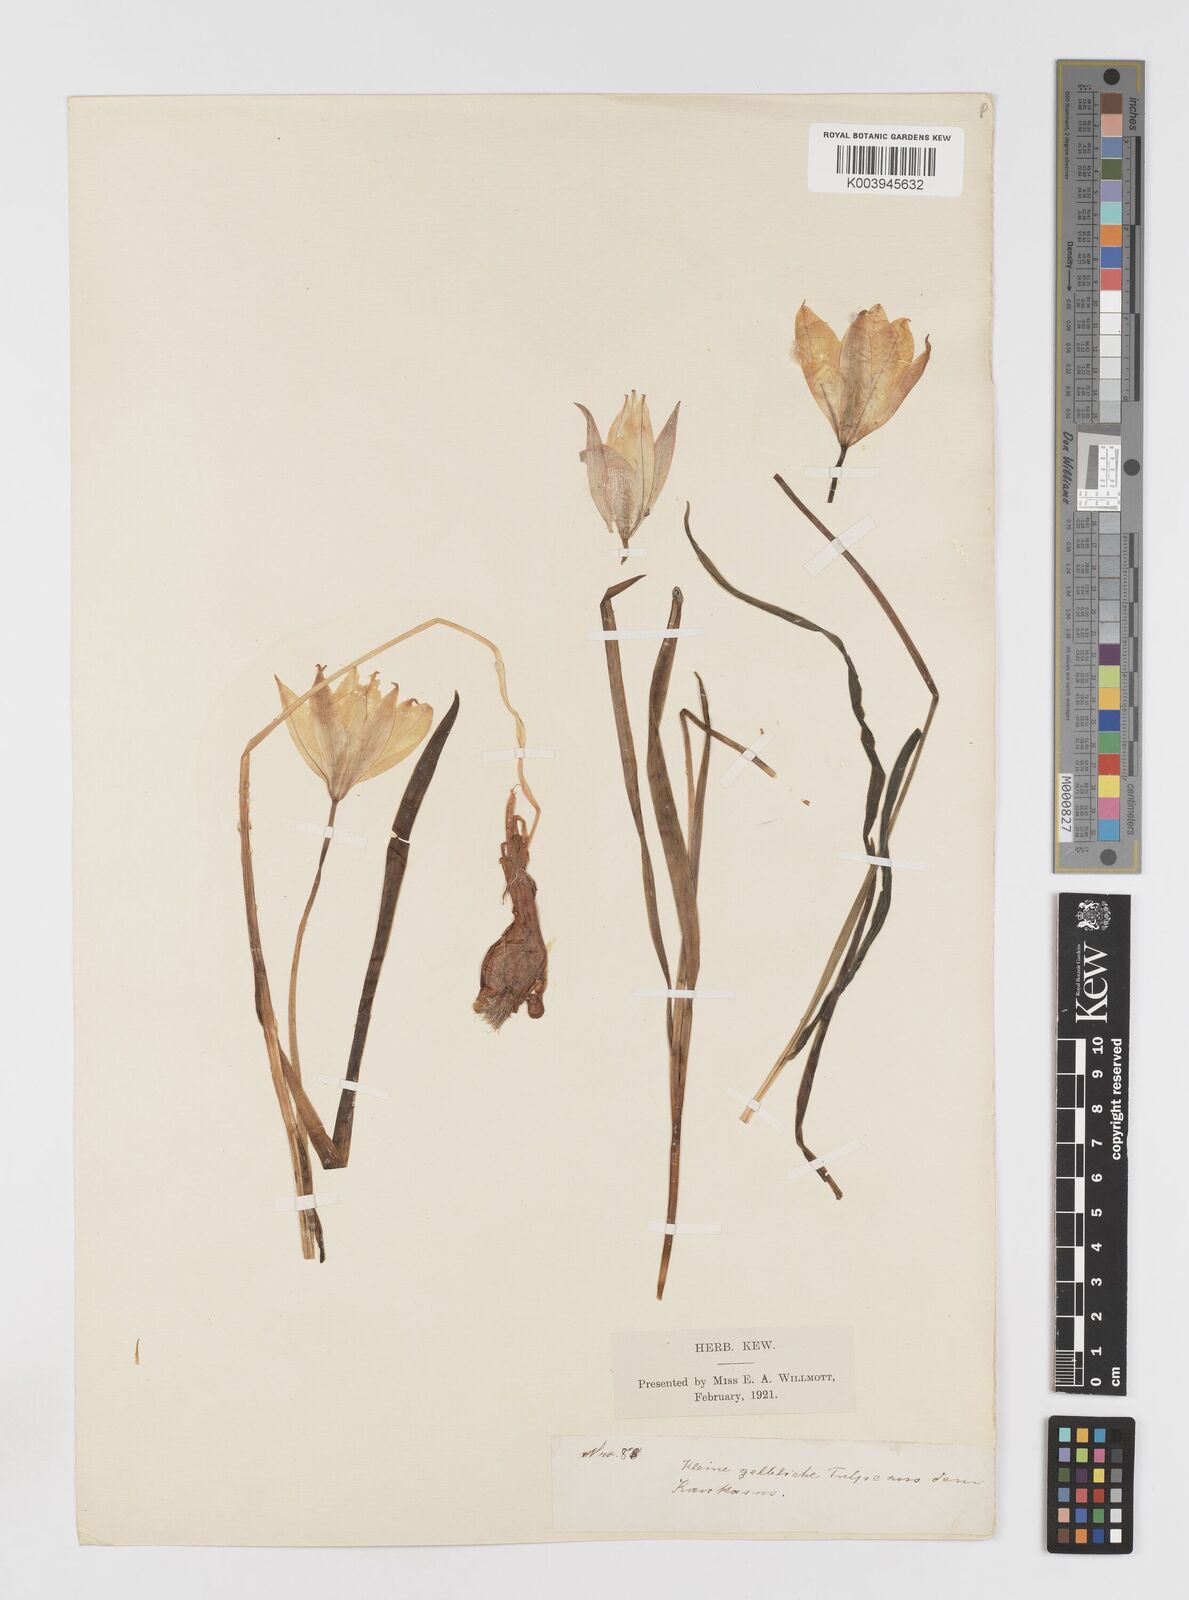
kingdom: Plantae
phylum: Tracheophyta
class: Liliopsida
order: Liliales
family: Liliaceae
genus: Tulipa
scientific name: Tulipa sylvestris
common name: Wild tulip
